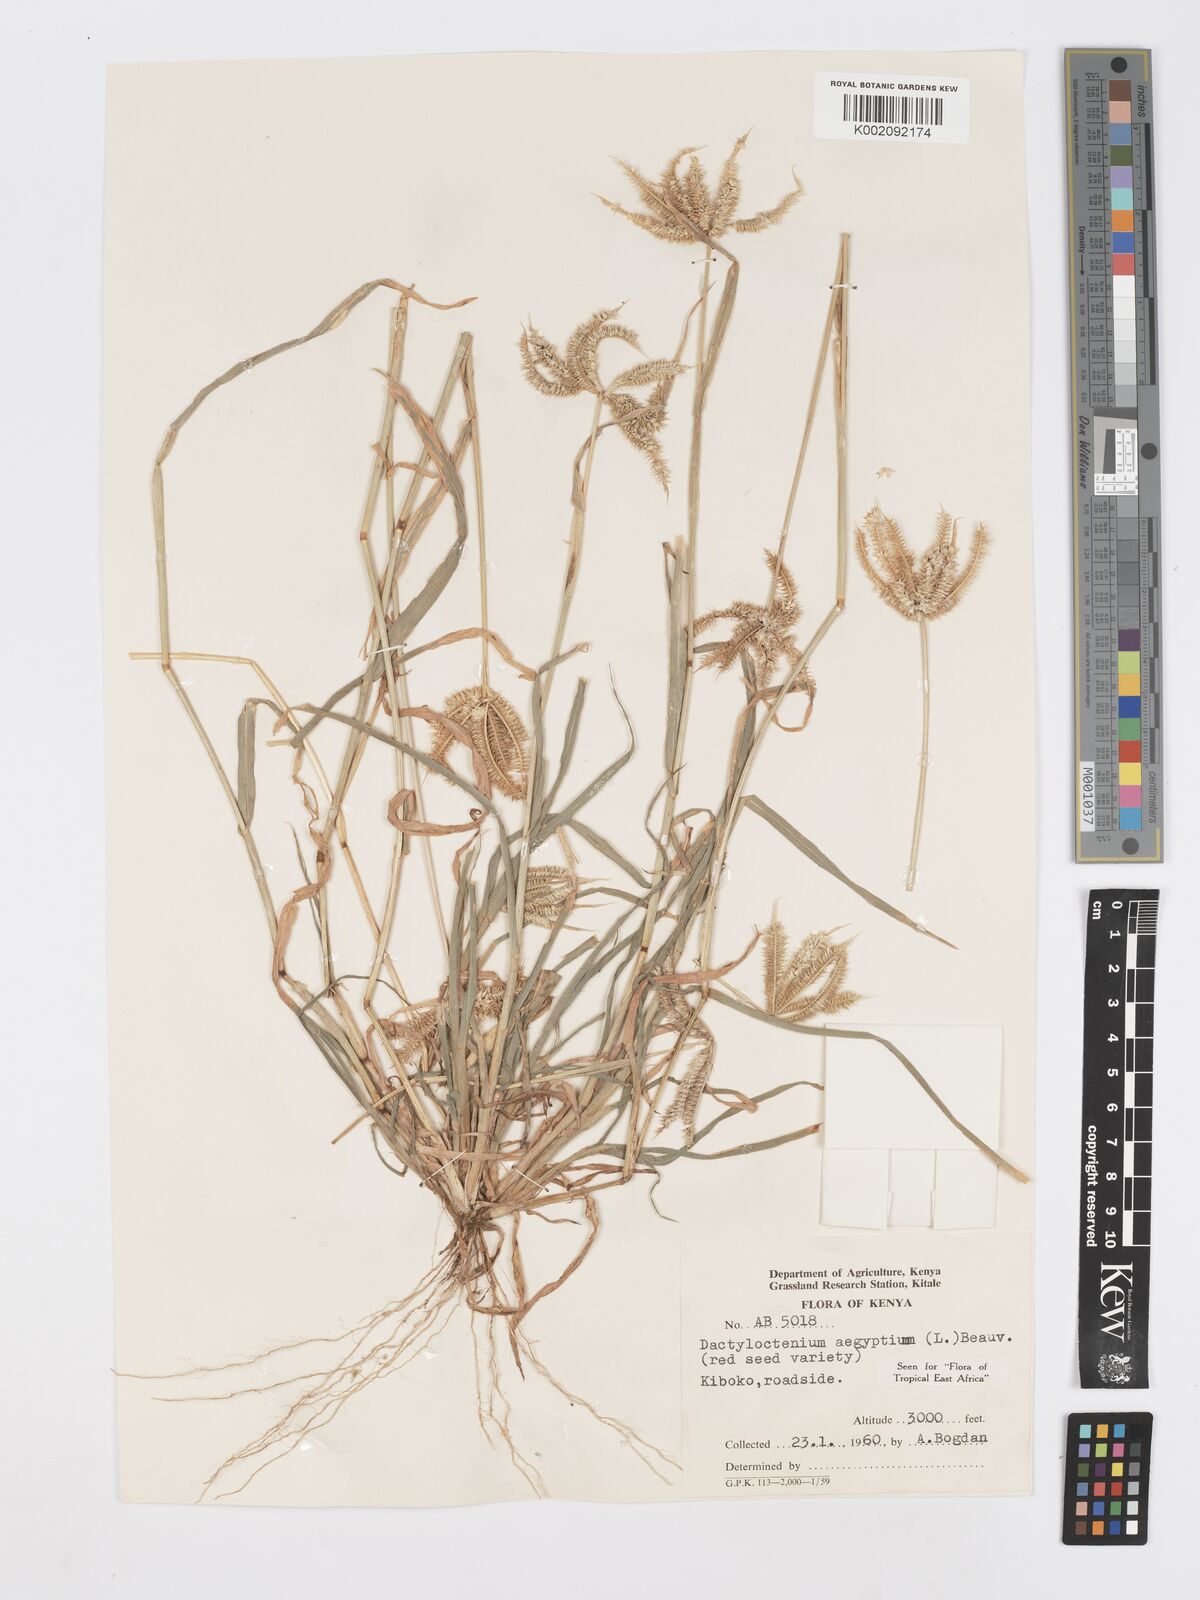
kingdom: Plantae
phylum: Tracheophyta
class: Liliopsida
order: Poales
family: Poaceae
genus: Dactyloctenium
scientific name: Dactyloctenium aegyptium
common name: Egyptian grass
